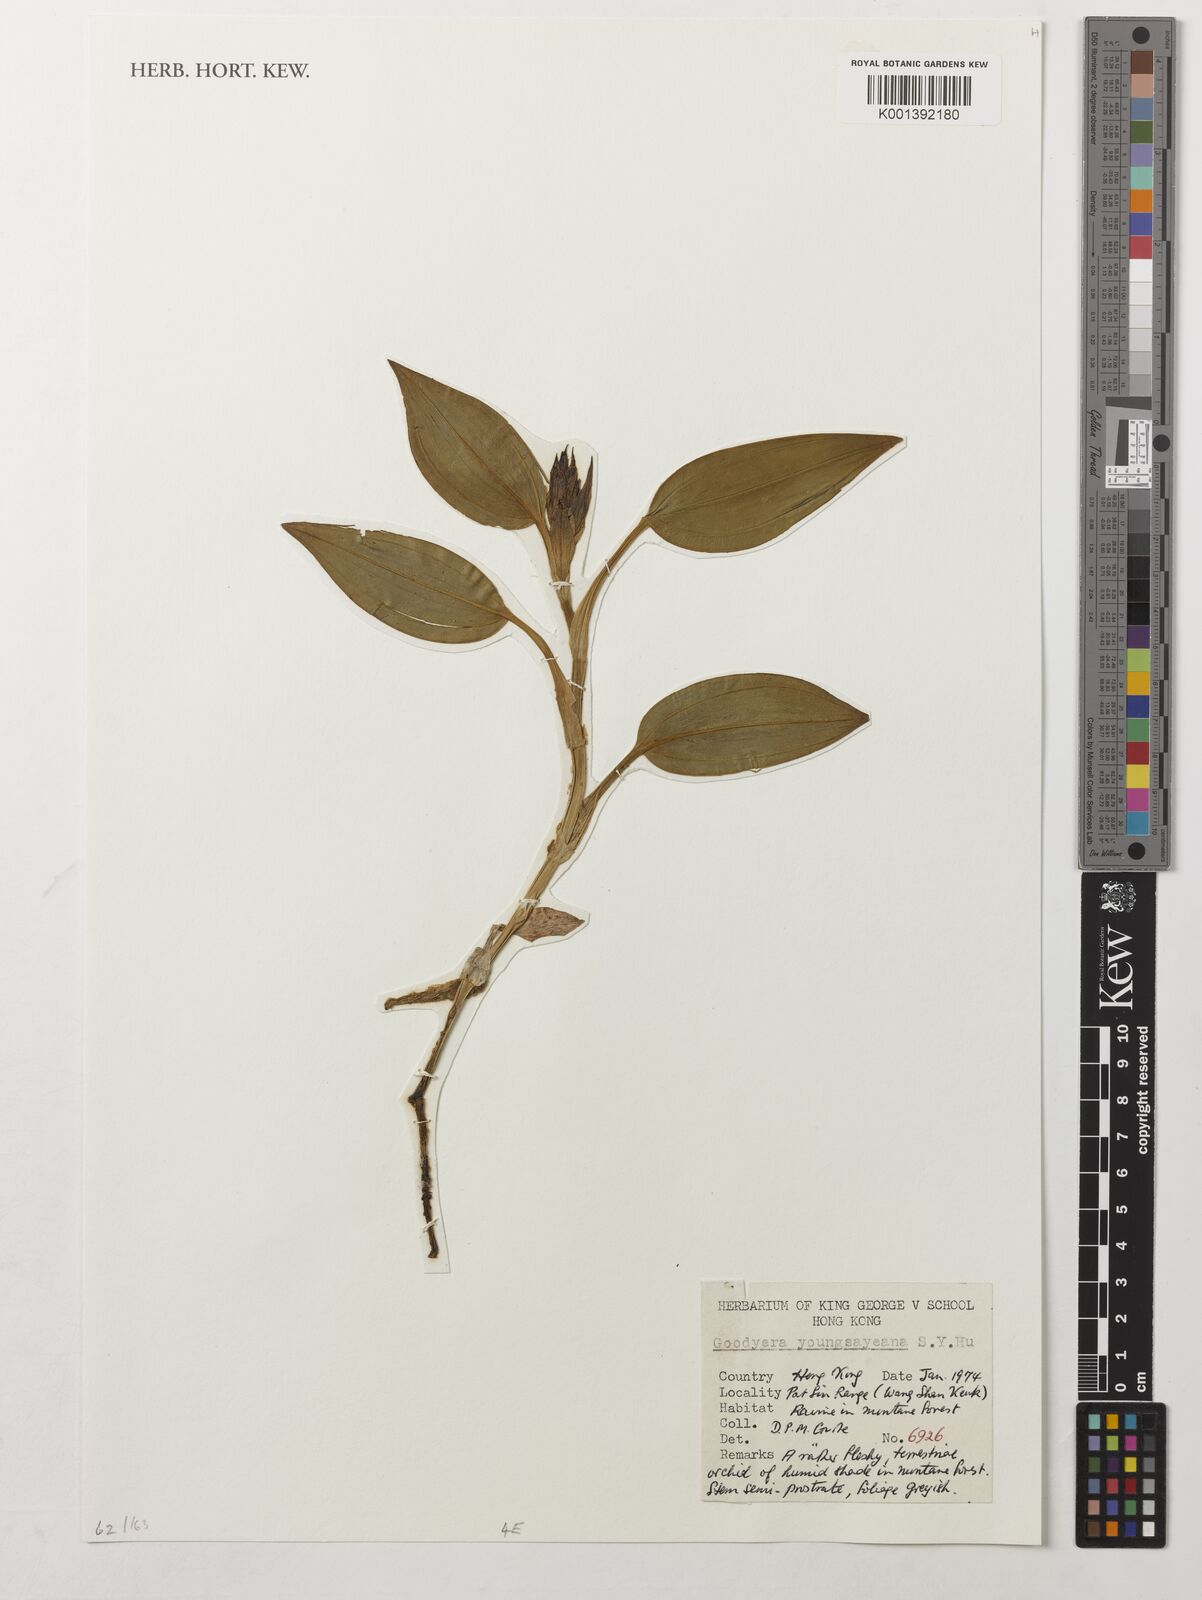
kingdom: Plantae
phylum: Tracheophyta
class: Liliopsida
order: Asparagales
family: Orchidaceae
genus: Goodyera
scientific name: Goodyera longirostrata
